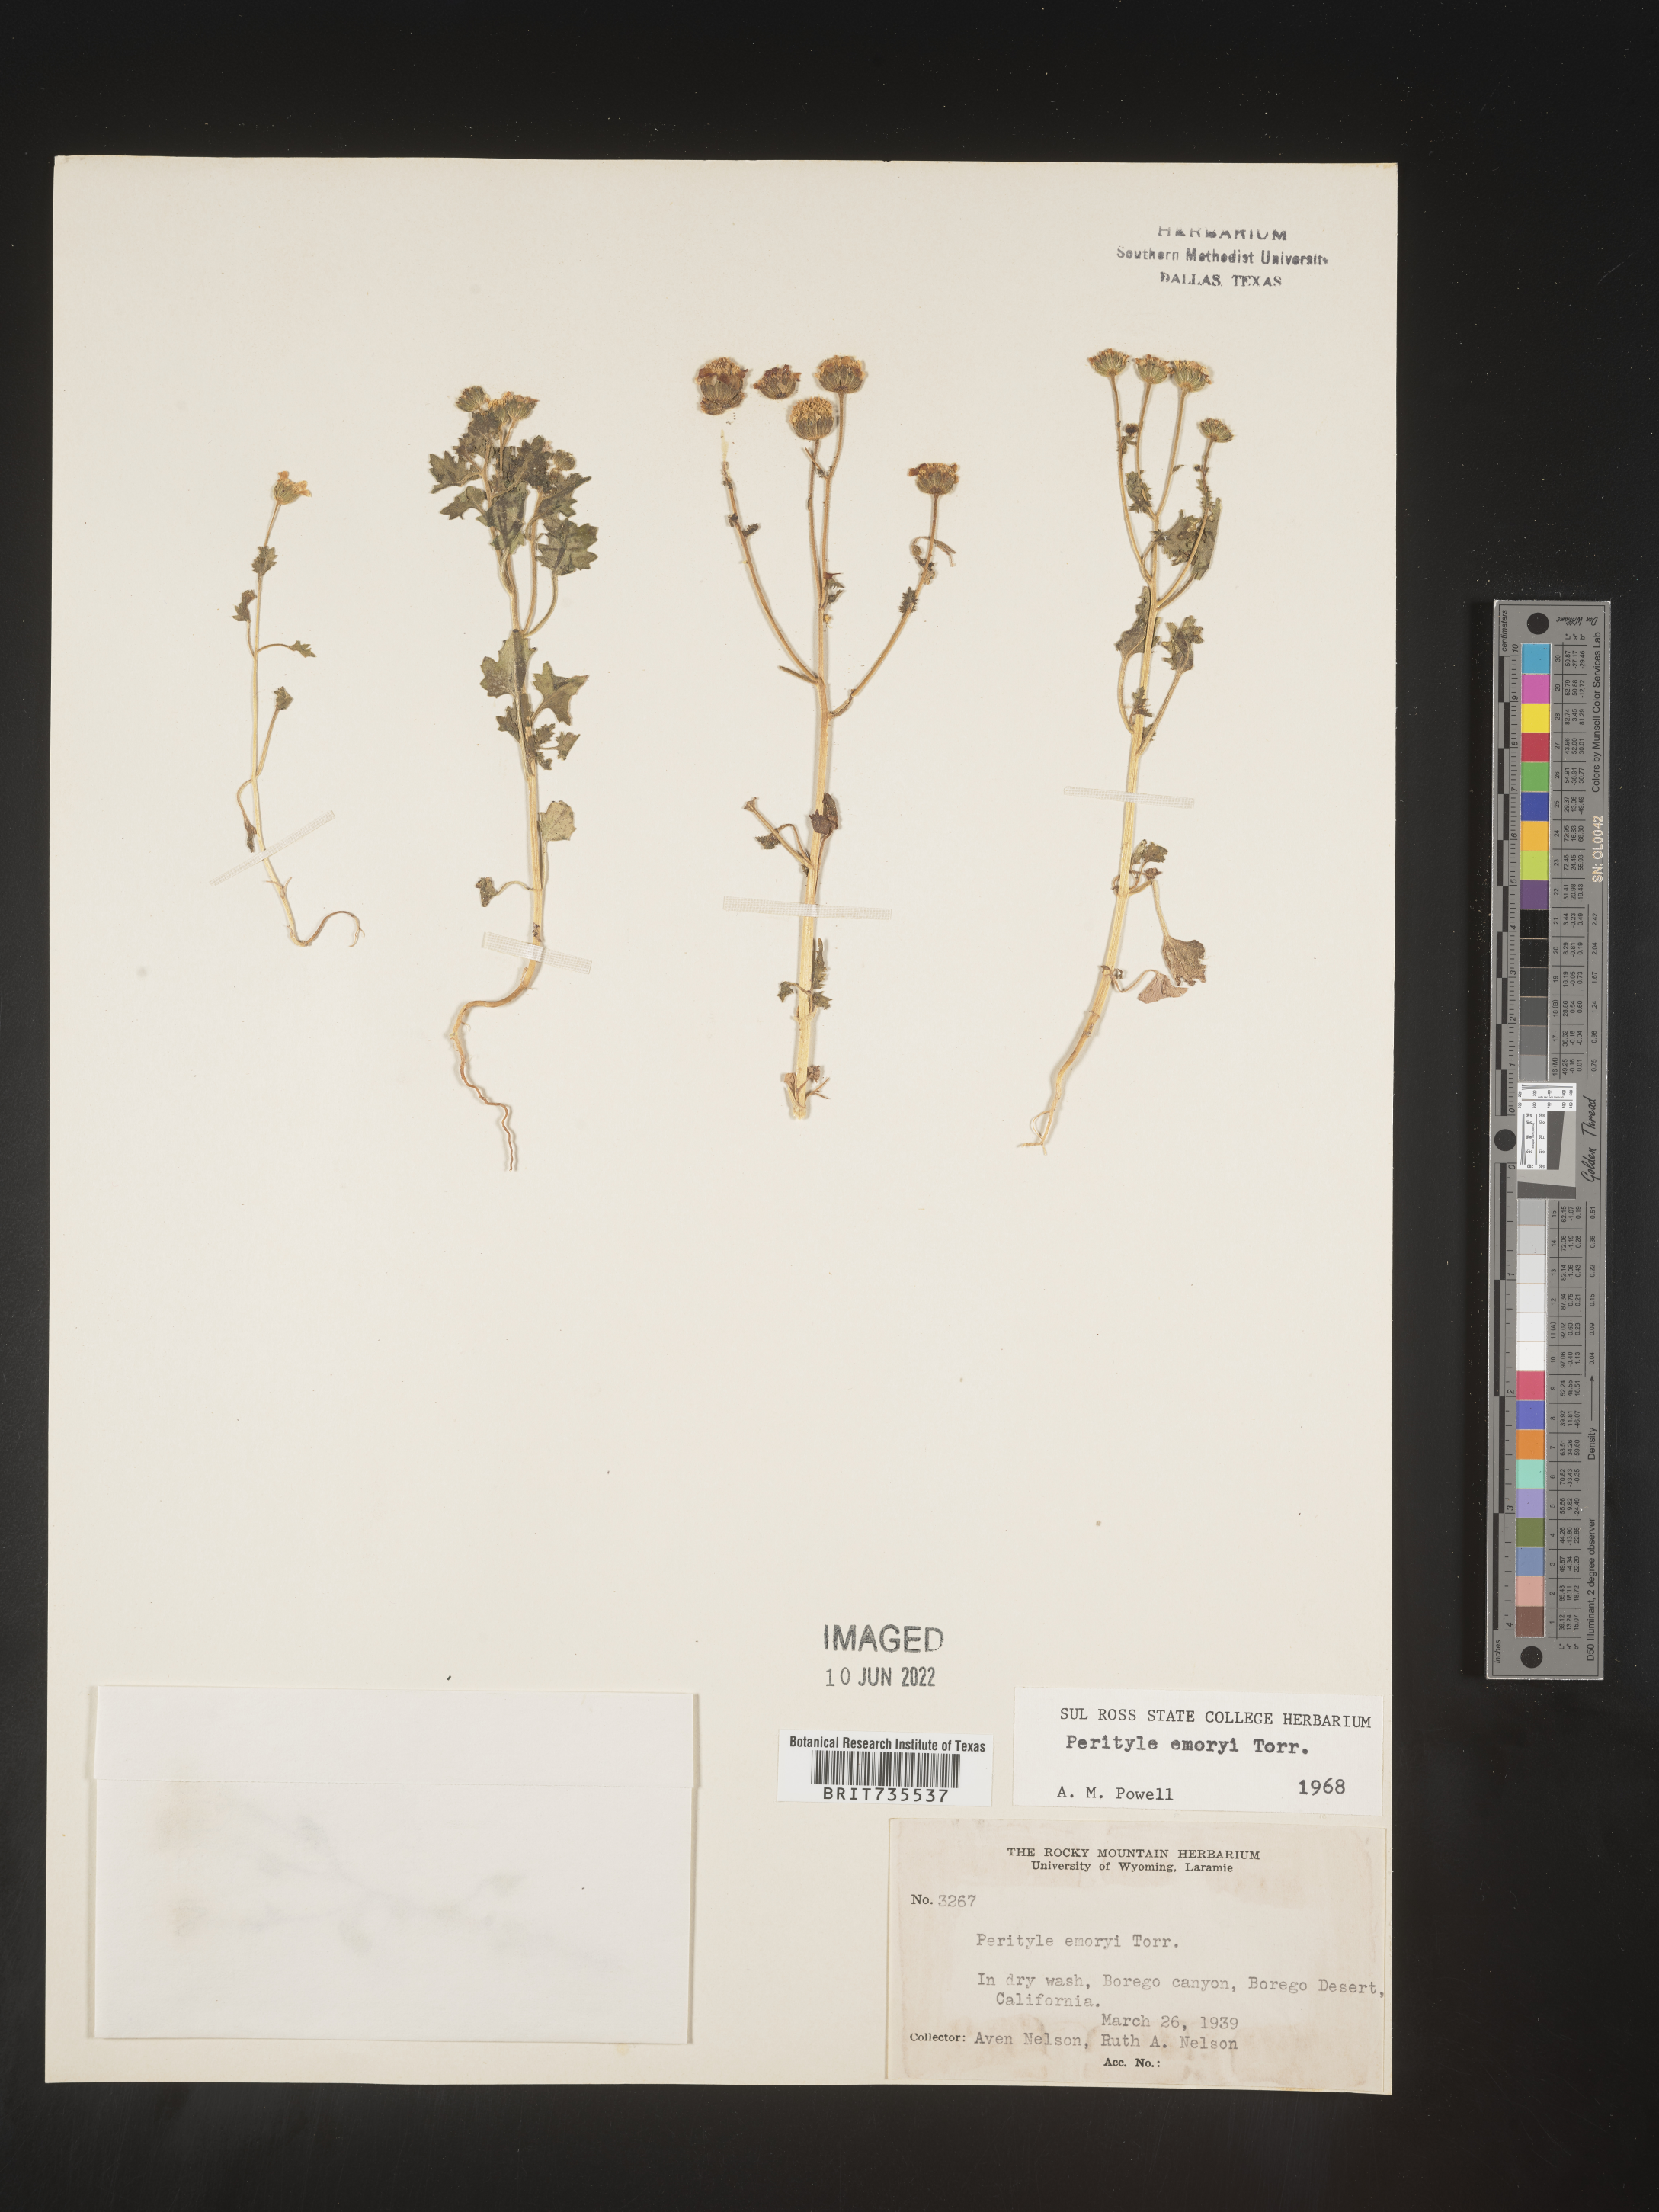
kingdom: Plantae
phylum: Tracheophyta
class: Magnoliopsida
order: Asterales
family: Asteraceae
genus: Perityle
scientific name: Perityle
